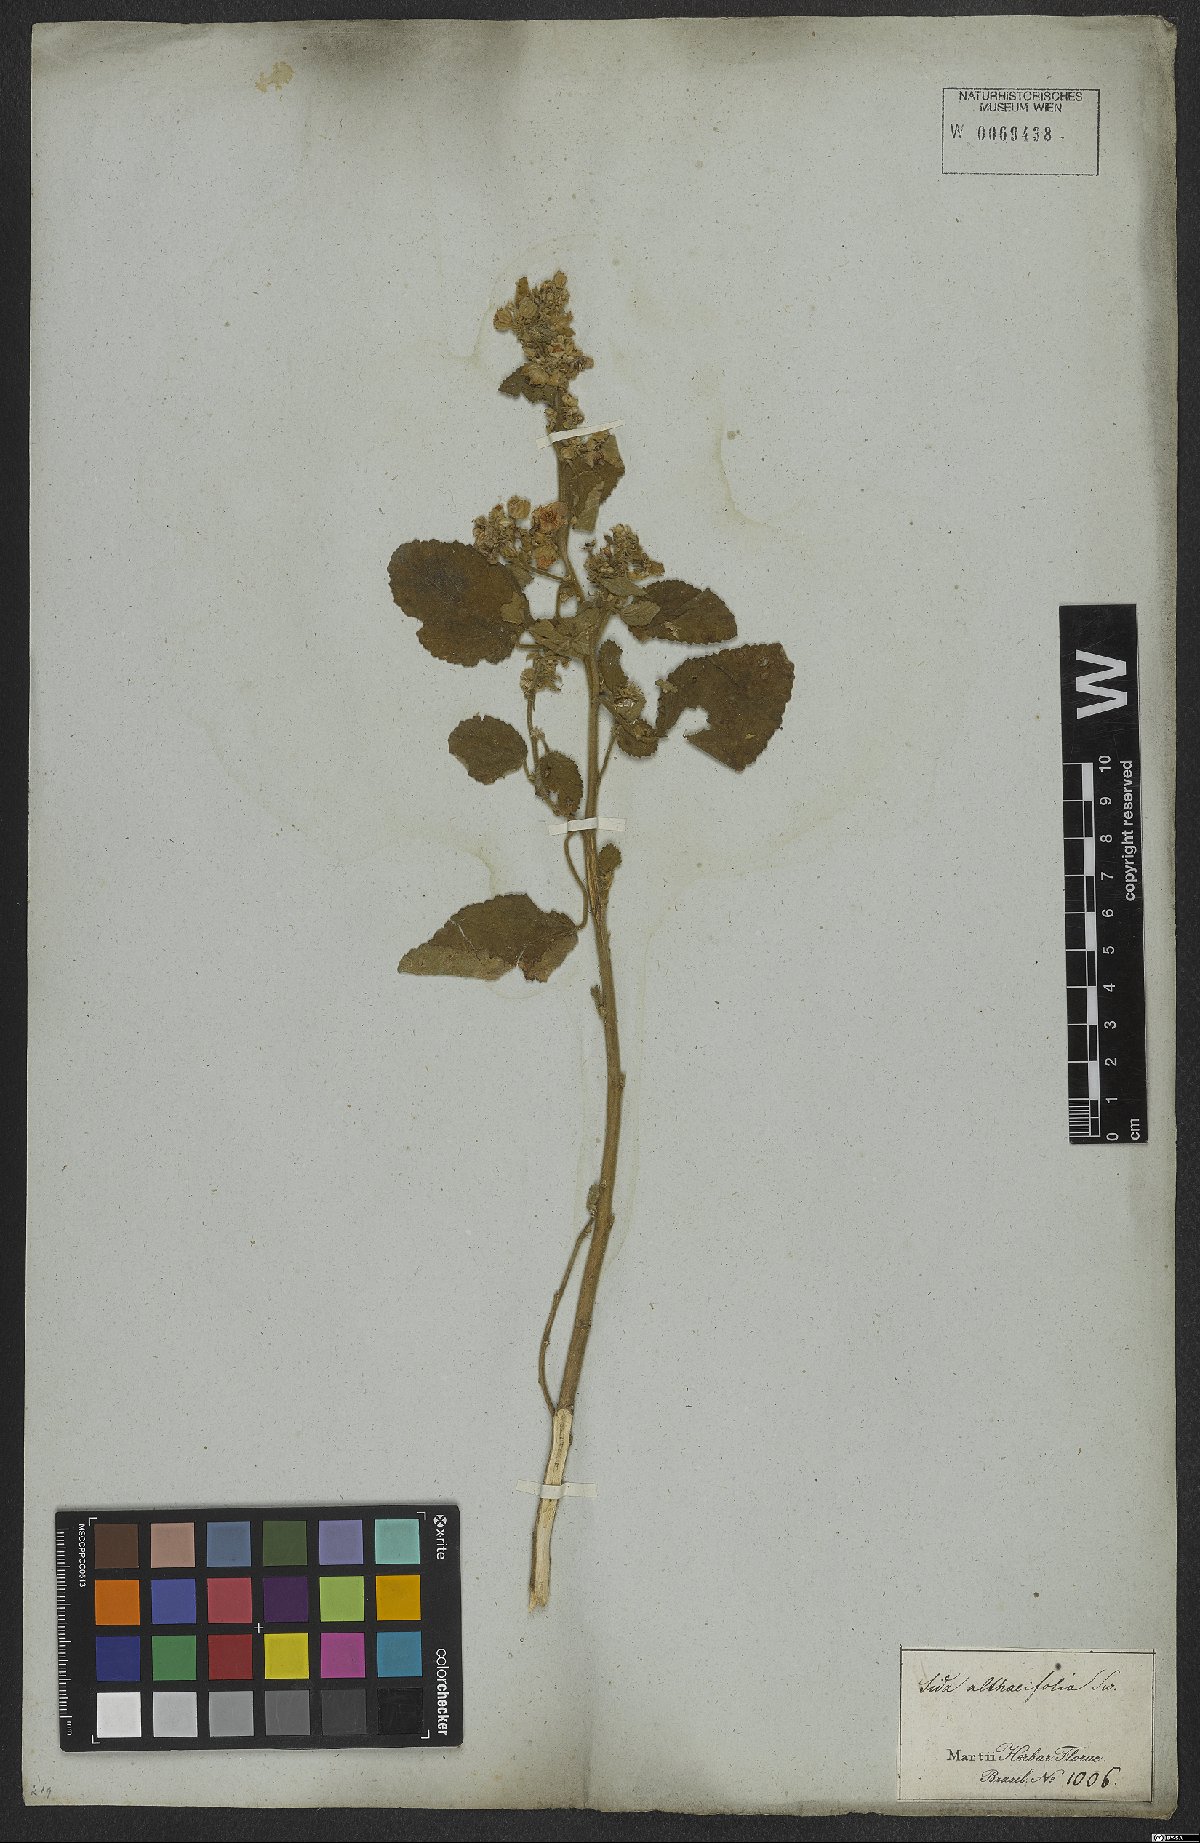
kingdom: Plantae
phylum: Tracheophyta
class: Magnoliopsida
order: Malvales
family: Malvaceae
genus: Sida
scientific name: Sida cordifolia
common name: Ilima
